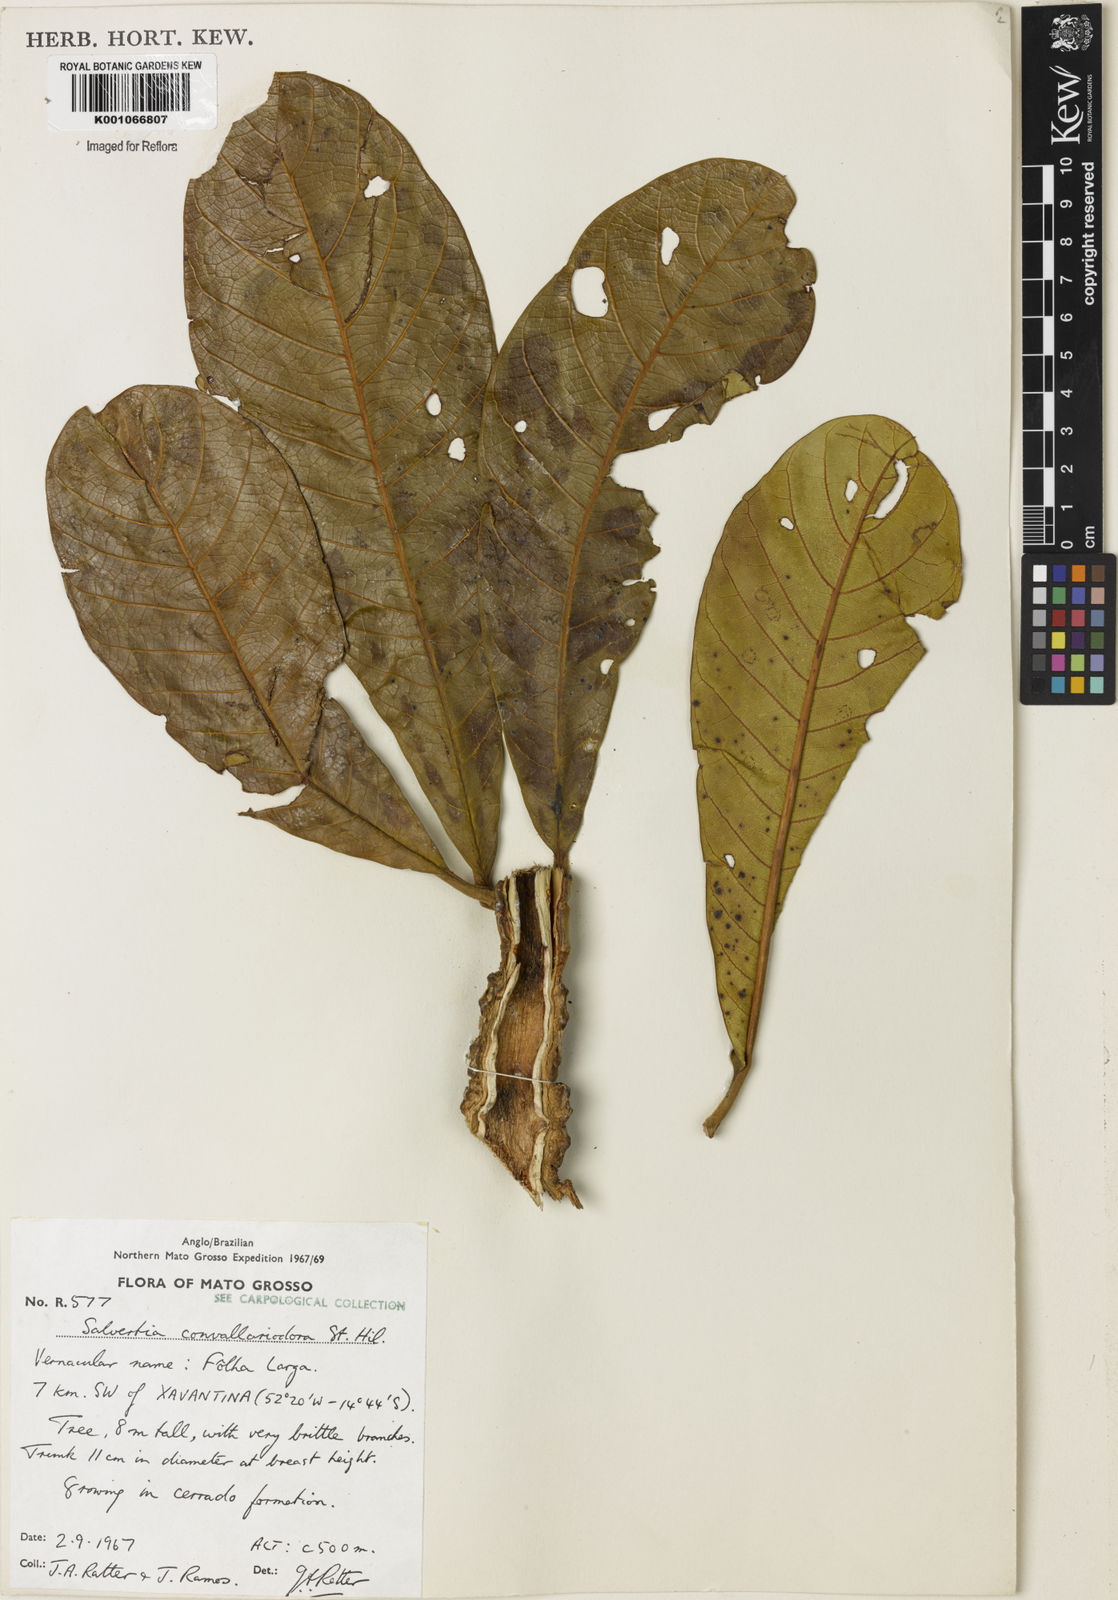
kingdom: Plantae
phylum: Tracheophyta
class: Magnoliopsida
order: Myrtales
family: Vochysiaceae
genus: Salvertia
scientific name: Salvertia convallariodora
